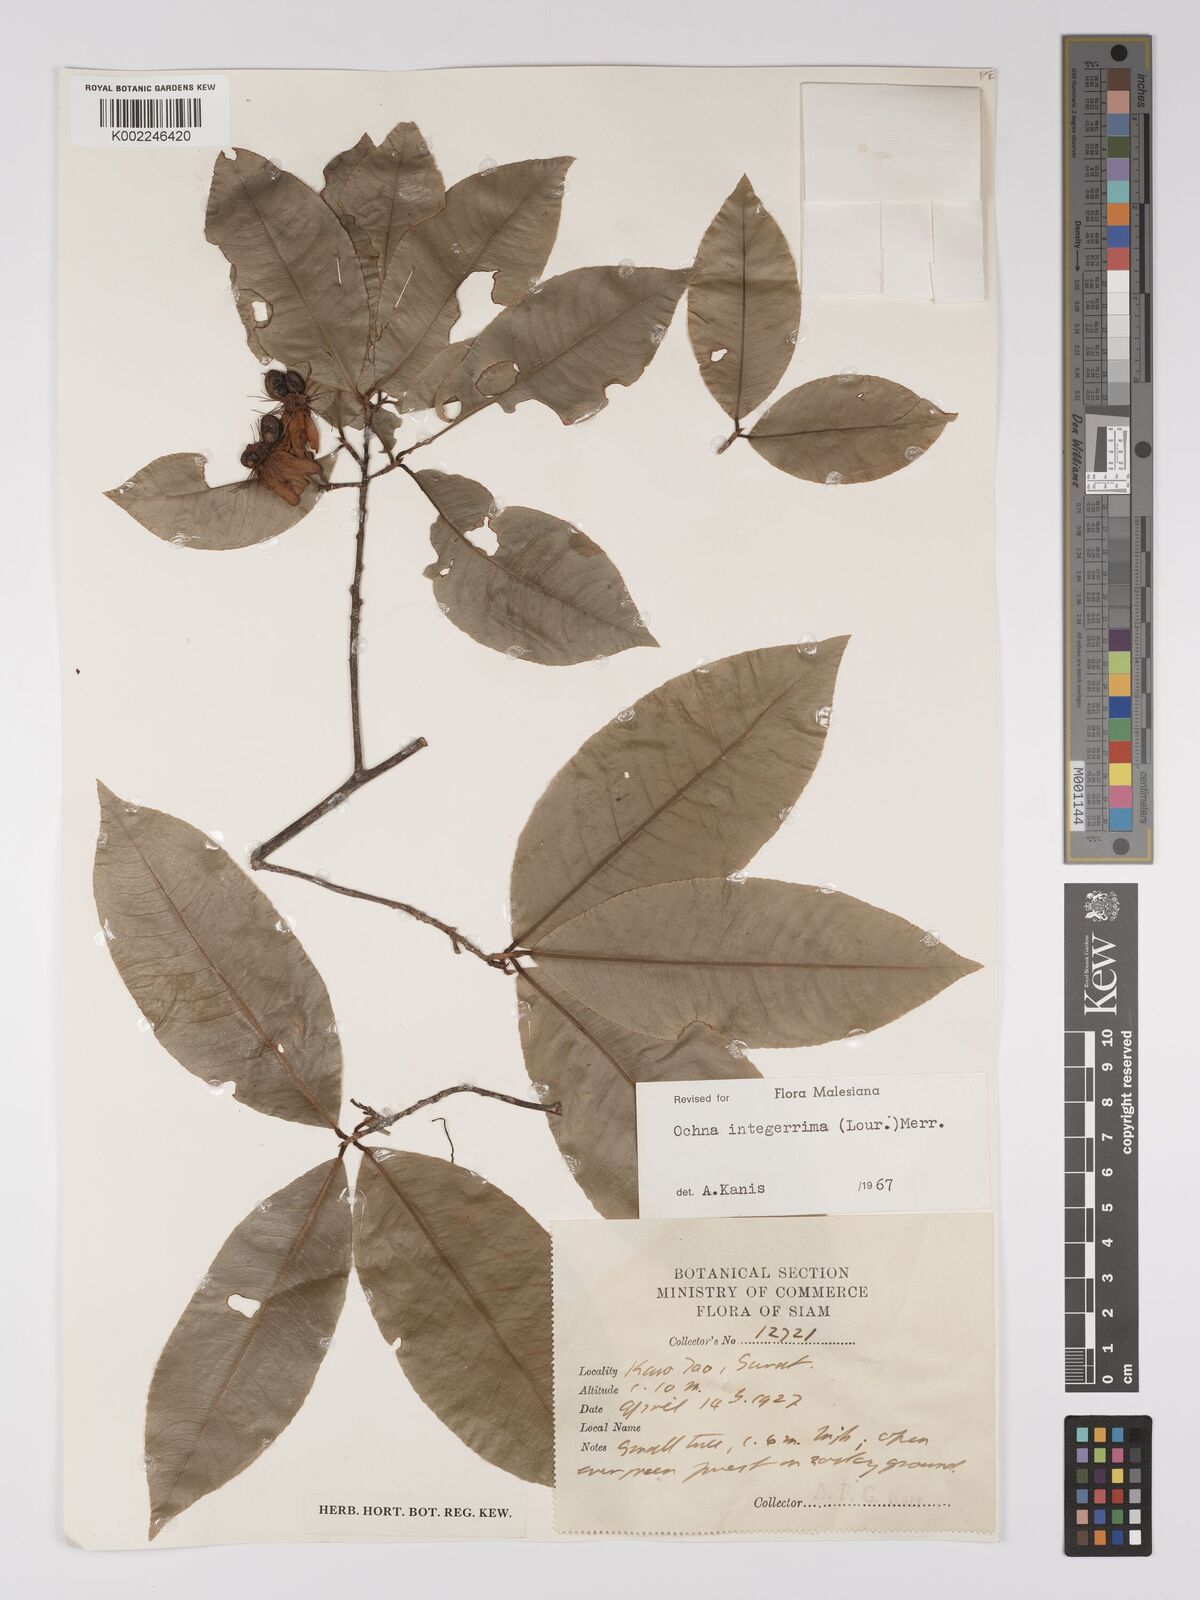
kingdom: Plantae
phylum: Tracheophyta
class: Magnoliopsida
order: Malpighiales
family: Ochnaceae
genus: Ochna
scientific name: Ochna integerrima
